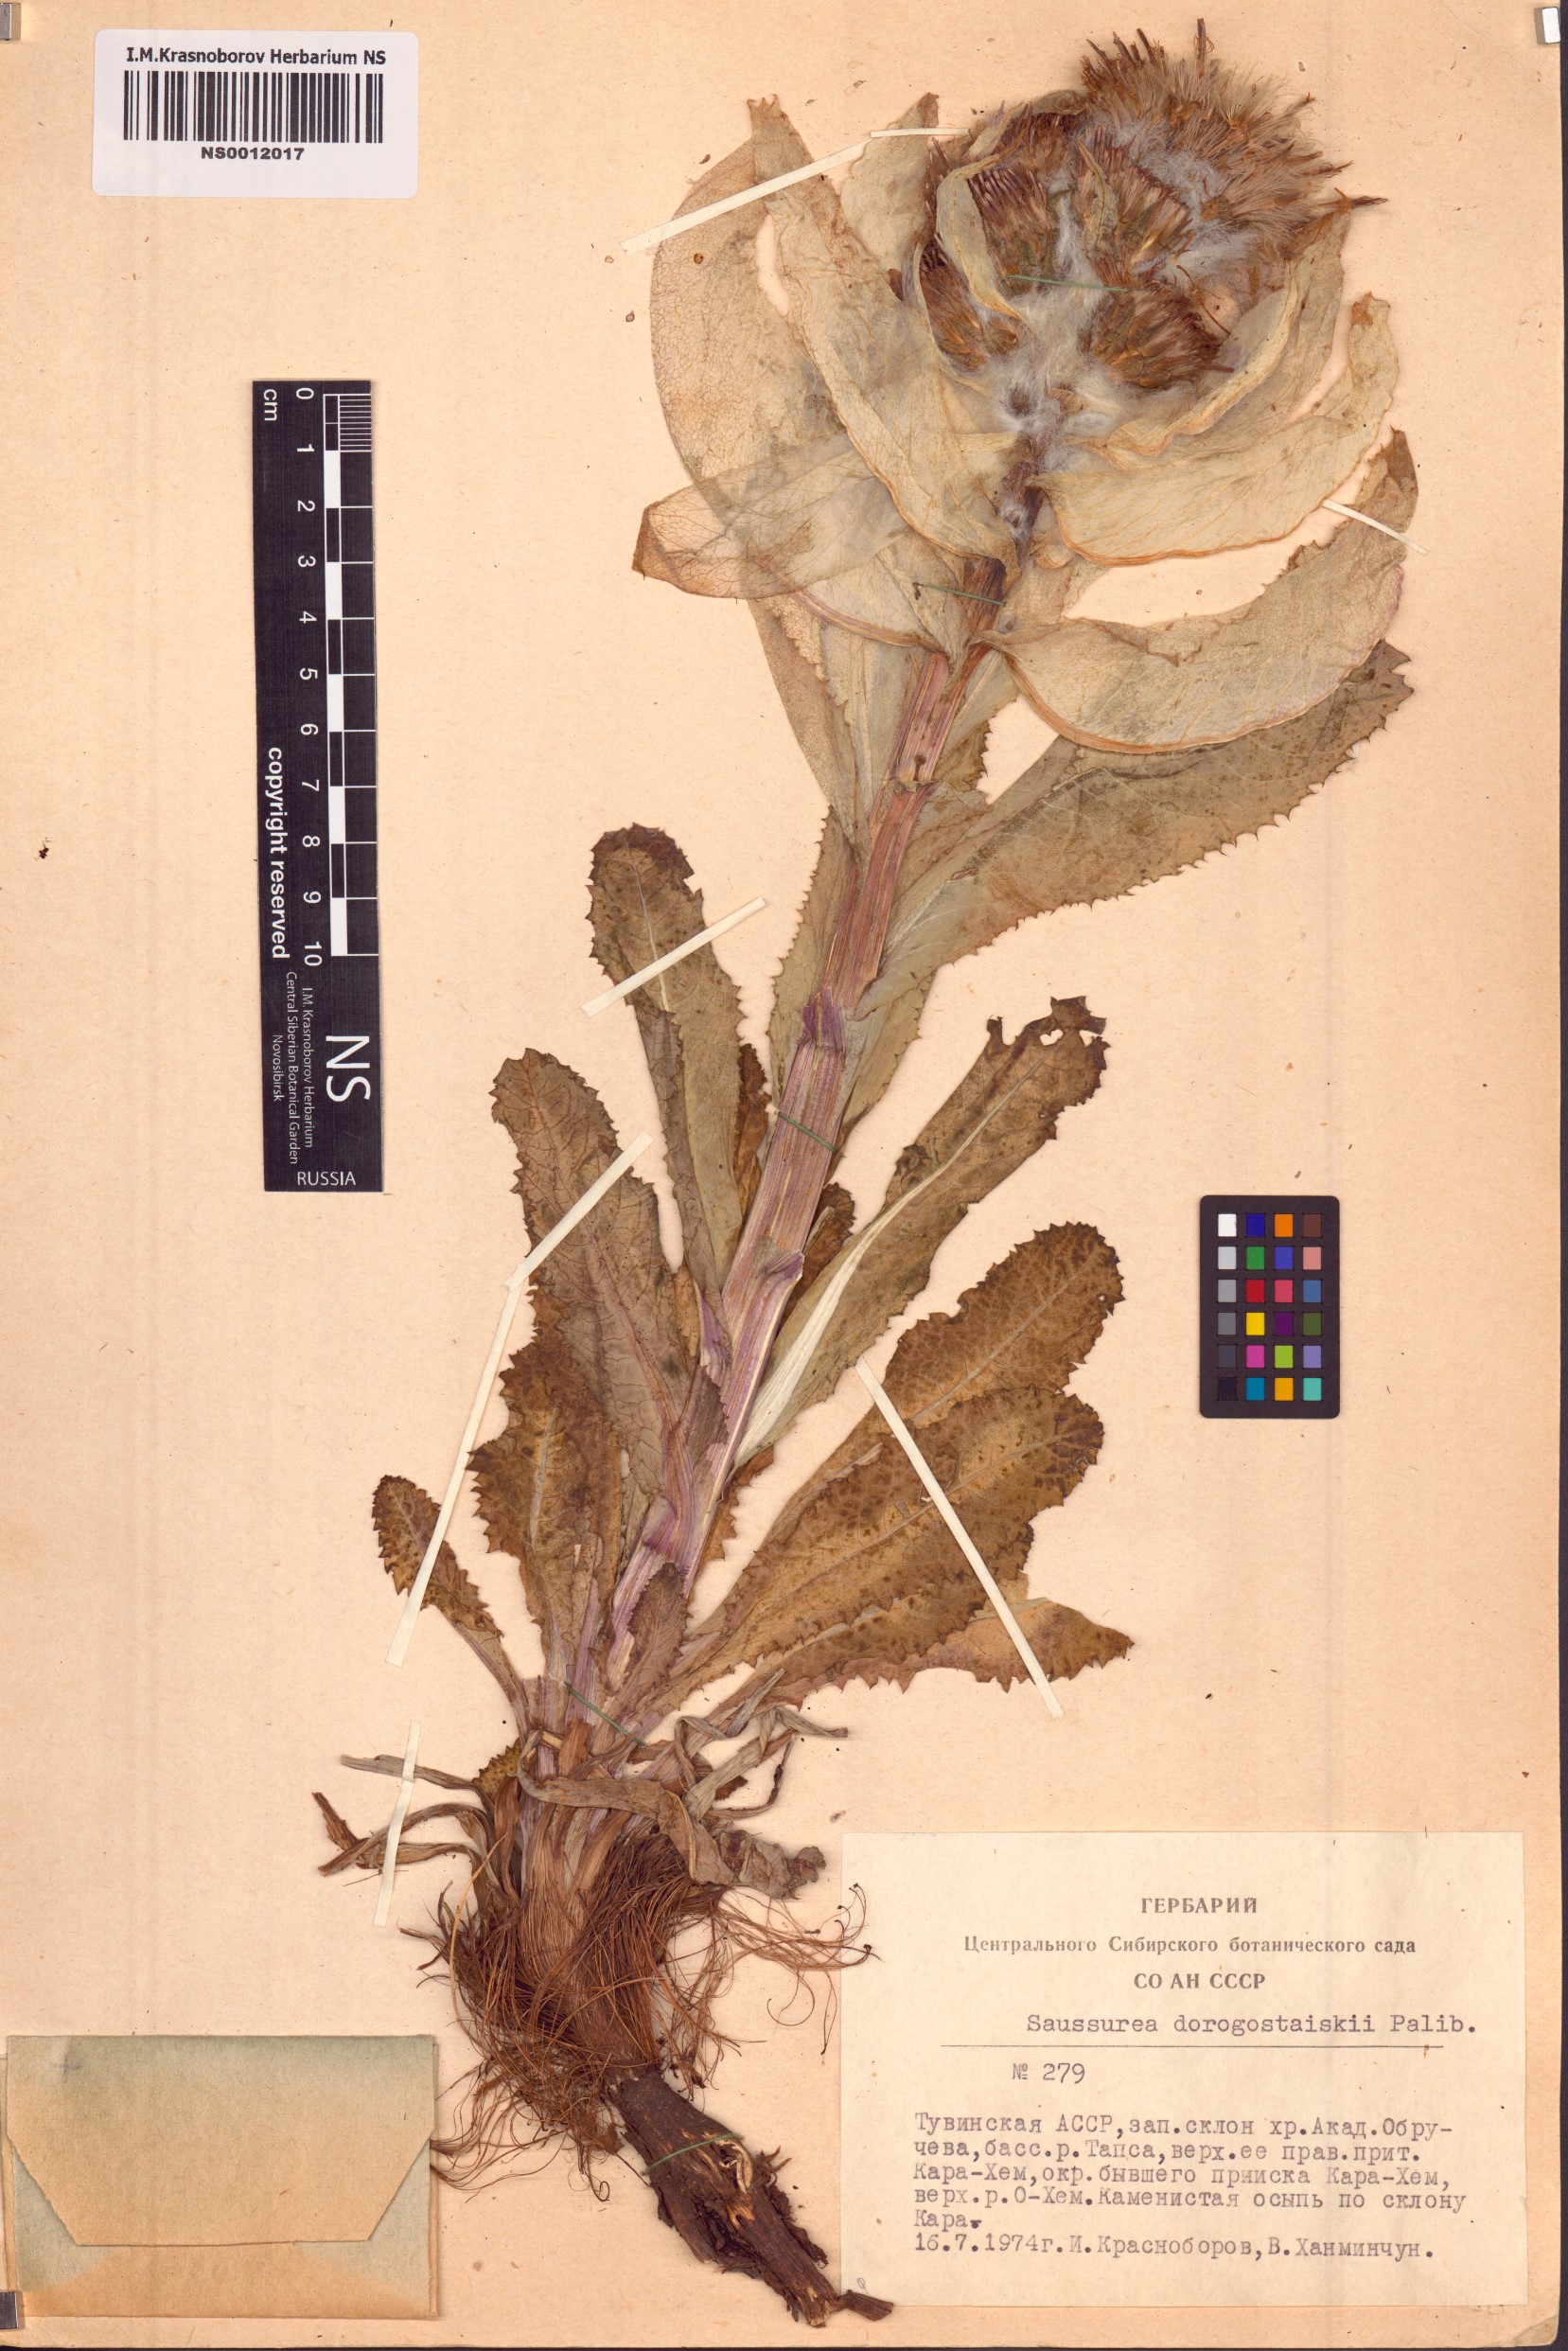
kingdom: Plantae
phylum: Tracheophyta
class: Magnoliopsida
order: Asterales
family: Asteraceae
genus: Saussurea
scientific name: Saussurea involucrata
